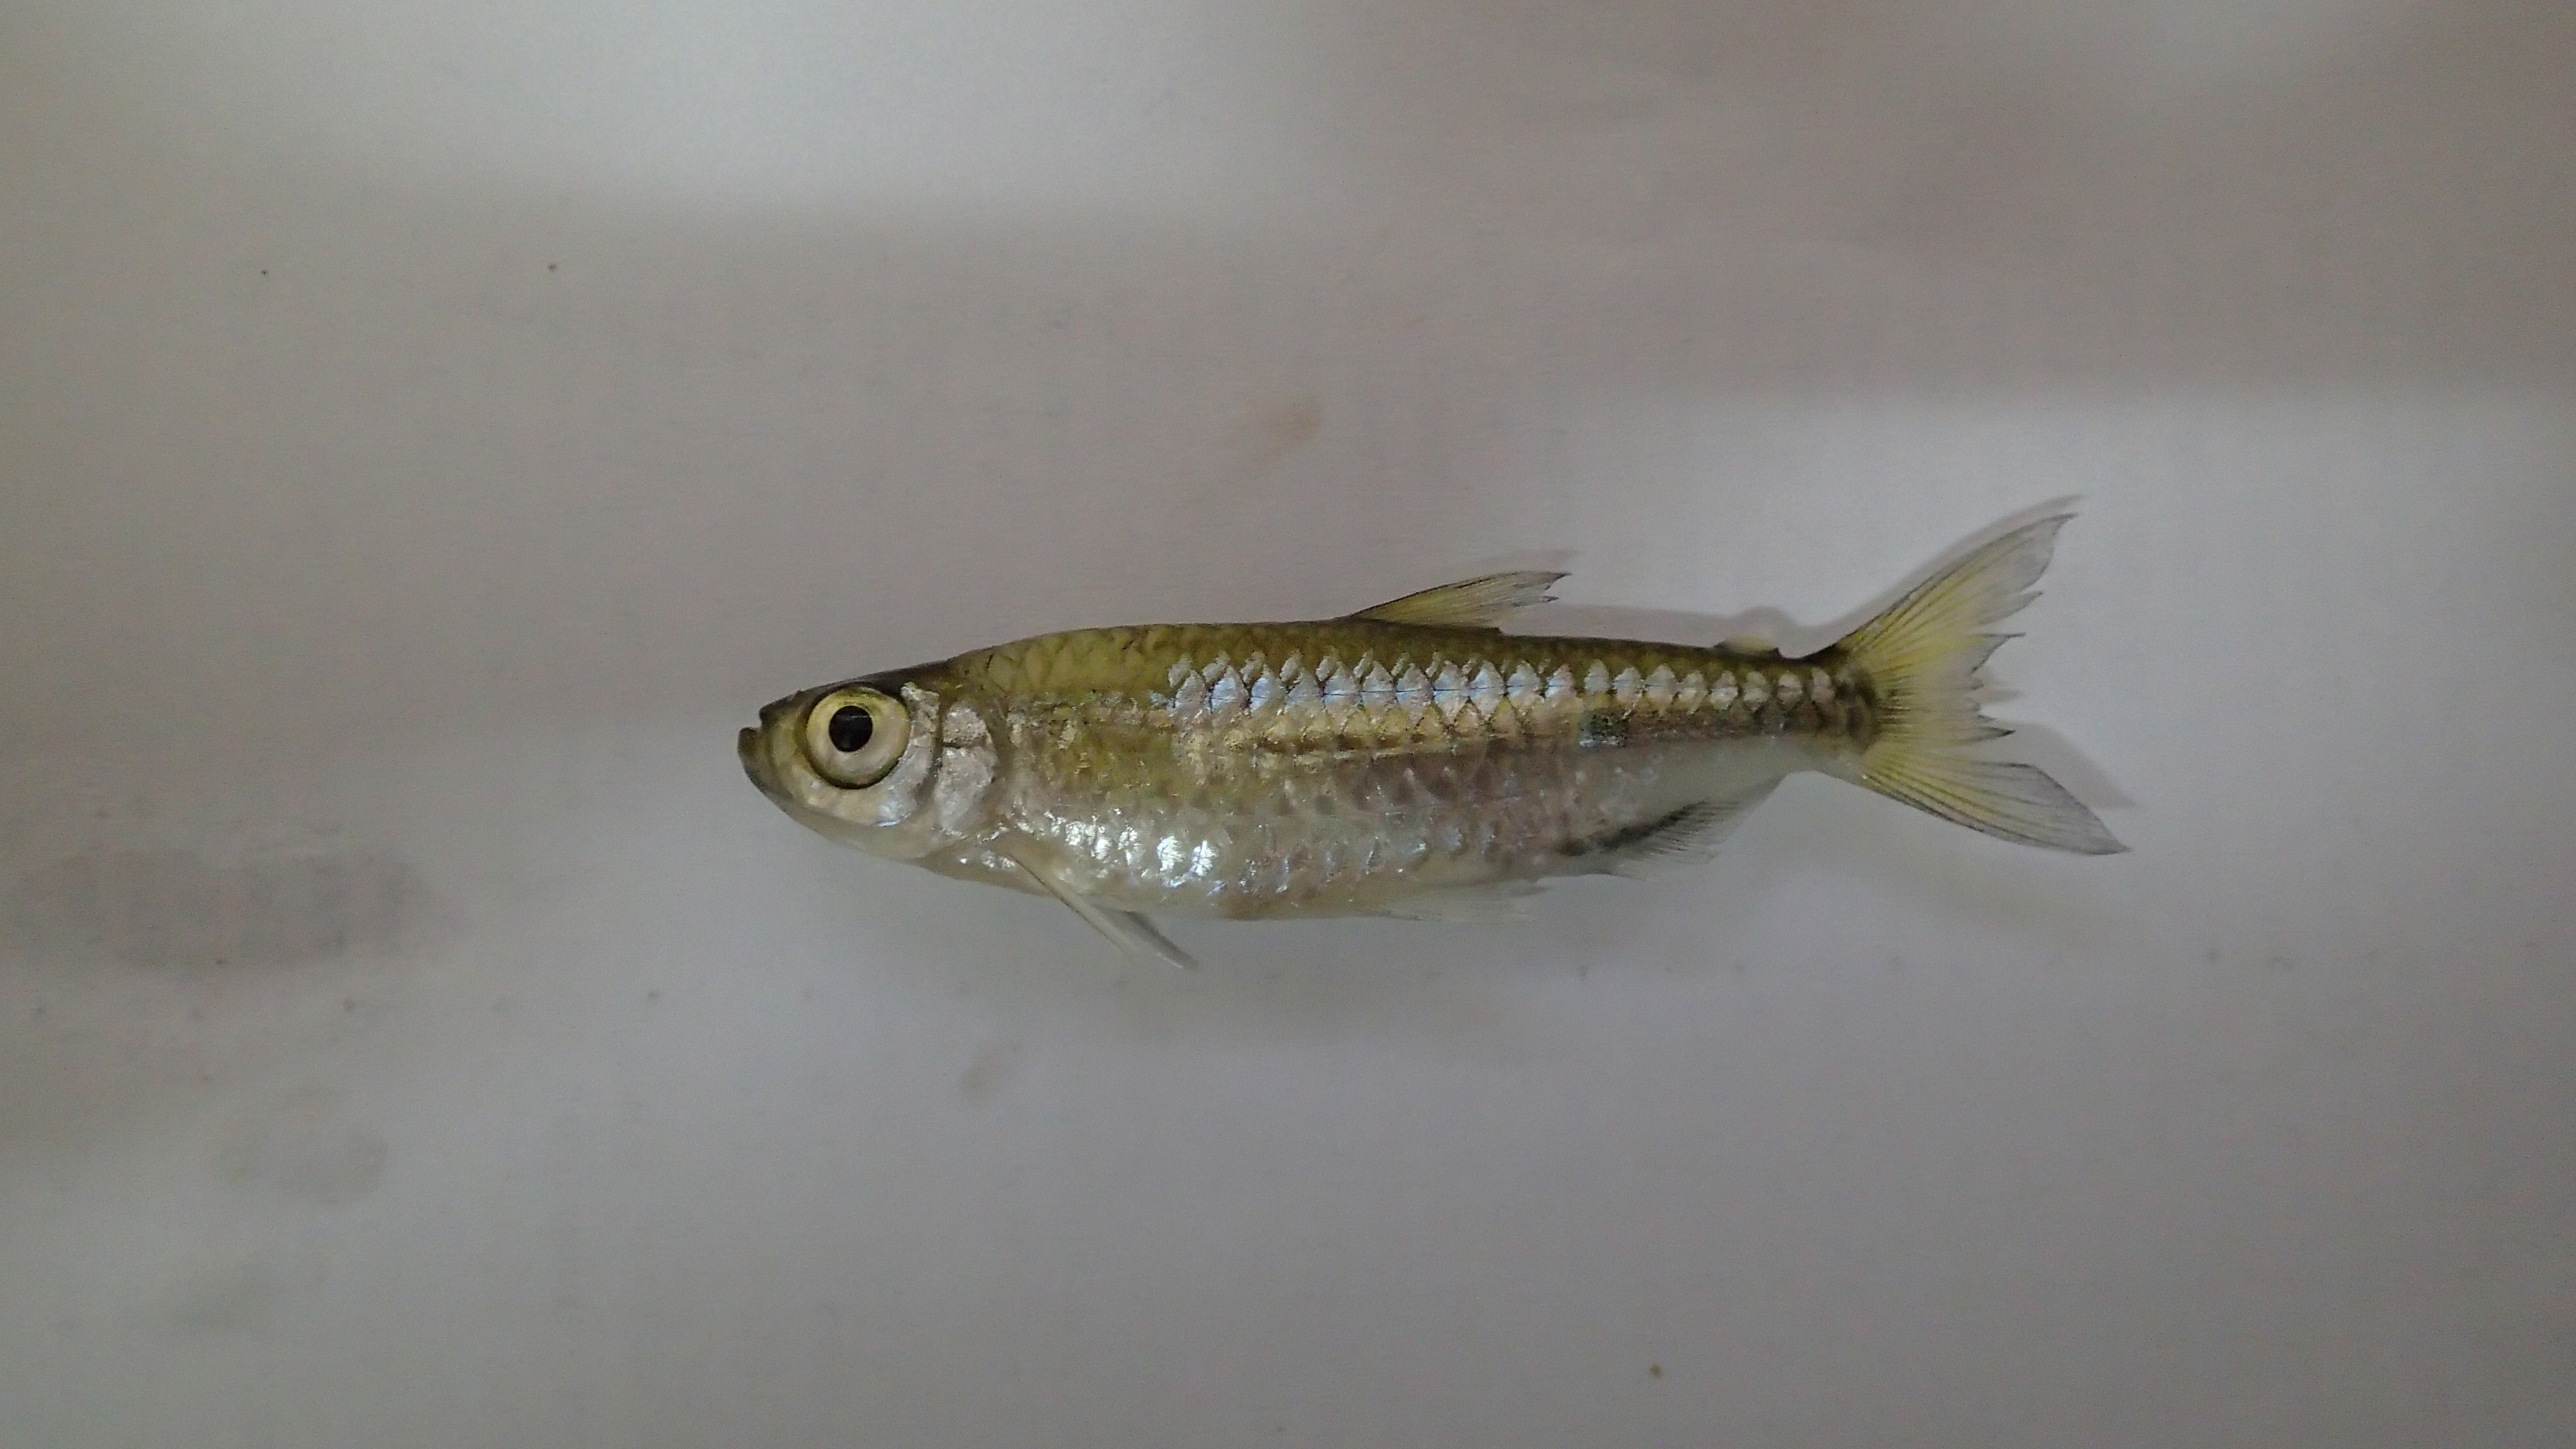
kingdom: Animalia
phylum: Chordata
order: Characiformes
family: Alestidae
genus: Micralestes
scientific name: Micralestes elongatus
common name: Elongated turkana robber
